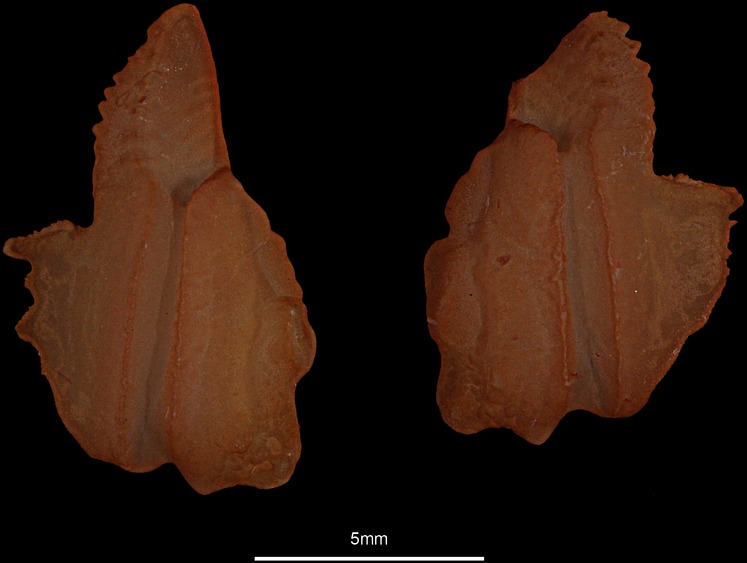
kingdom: Animalia
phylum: Chordata
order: Osmeriformes
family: Argentinidae
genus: Argentina
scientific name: Argentina silus
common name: Atlantic argentine
